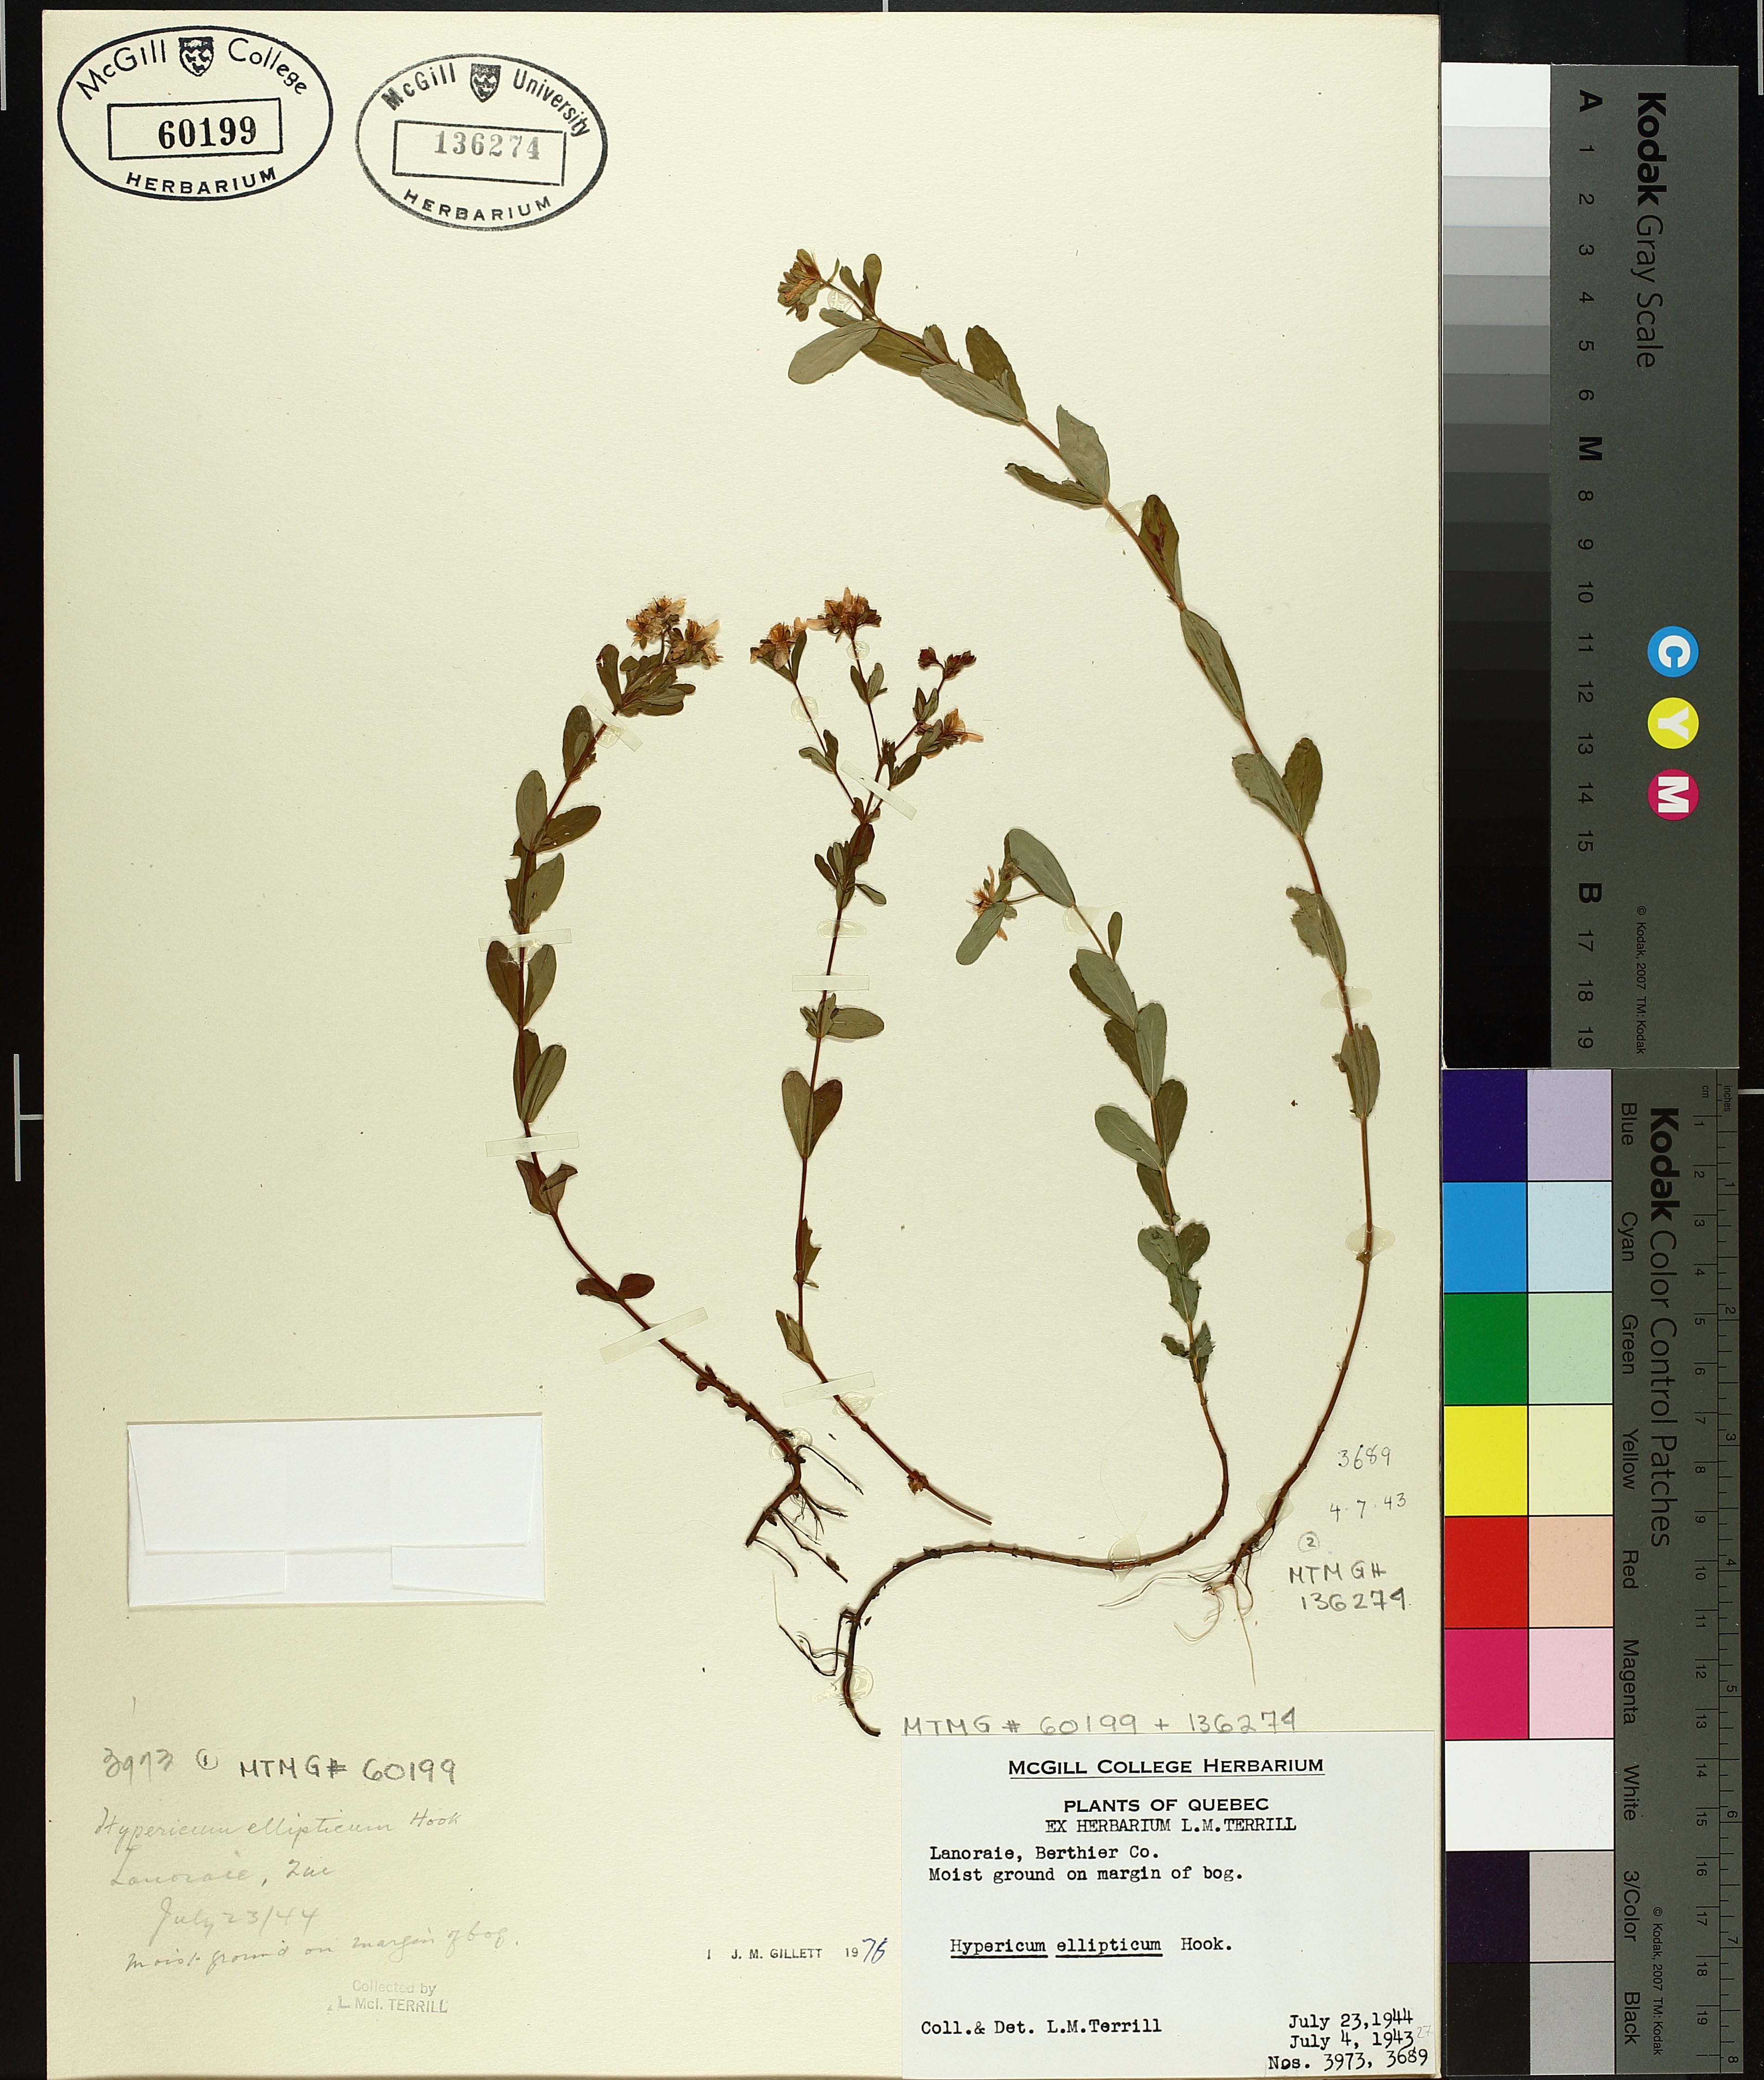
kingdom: Plantae
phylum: Tracheophyta
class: Magnoliopsida
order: Malpighiales
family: Hypericaceae
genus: Hypericum
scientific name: Hypericum ellipticum
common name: Elliptic st. john's-wort
